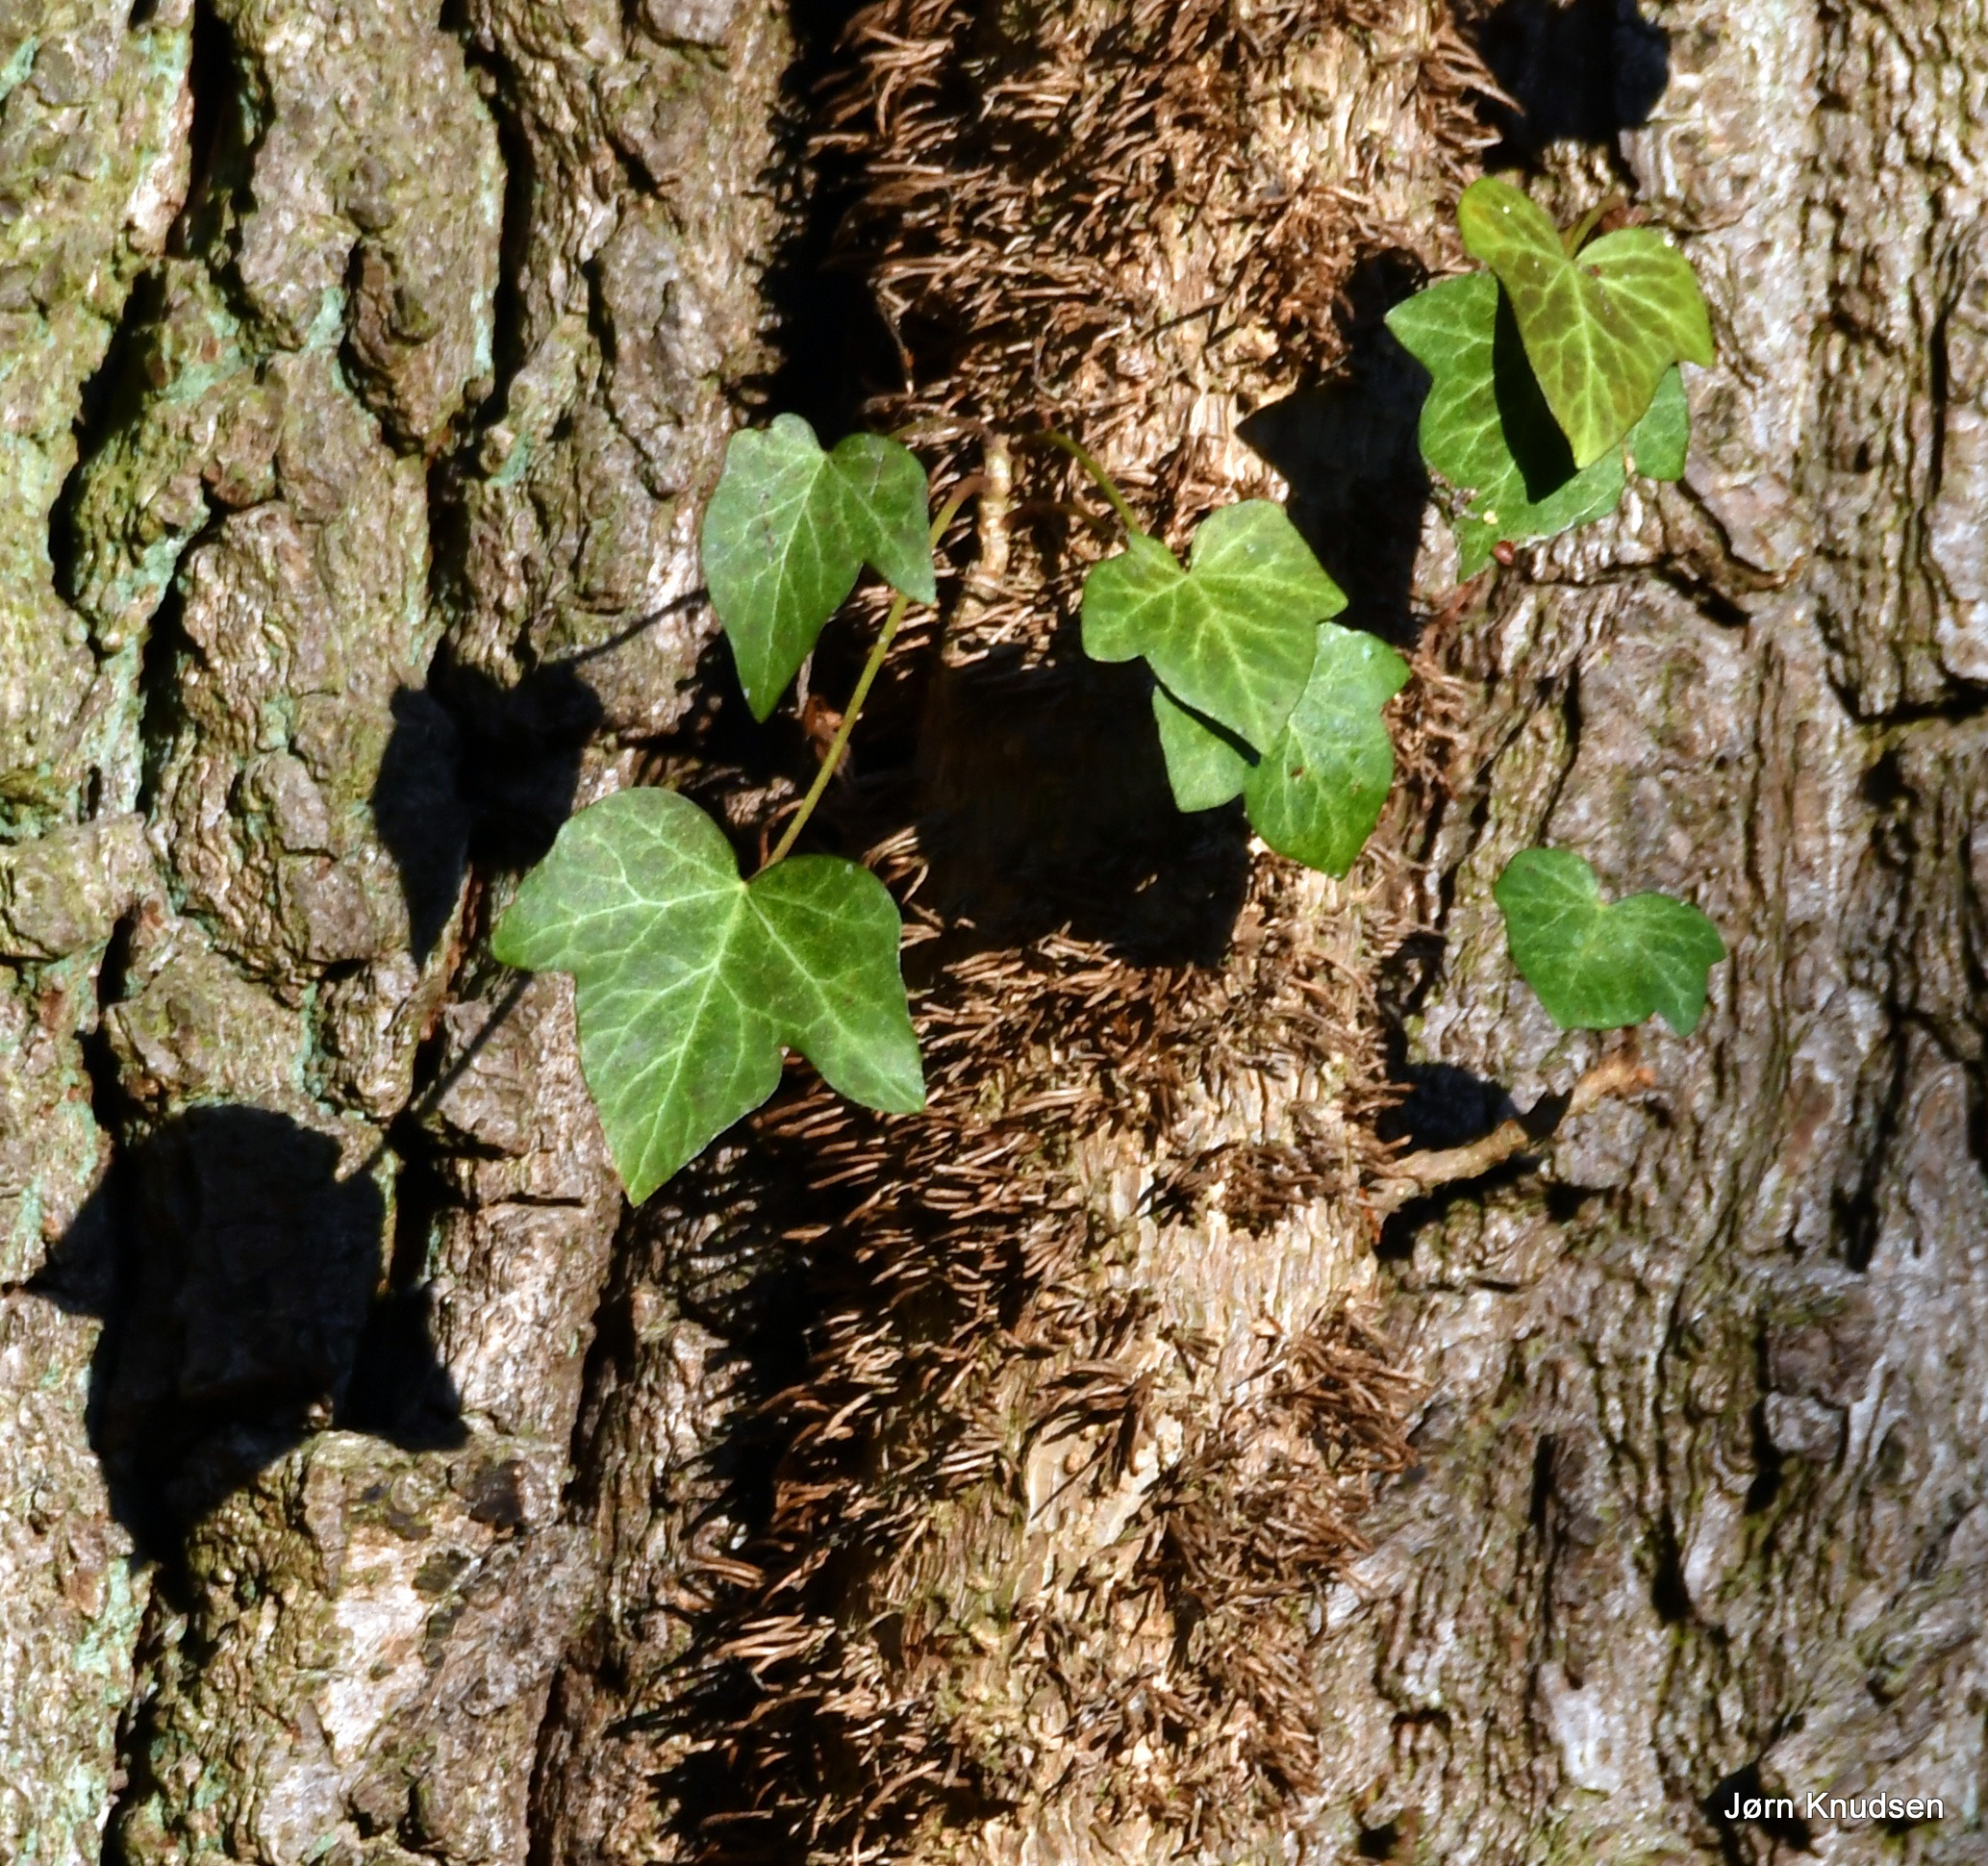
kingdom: Plantae
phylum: Tracheophyta
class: Magnoliopsida
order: Apiales
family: Araliaceae
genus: Hedera
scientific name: Hedera helix
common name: Vedbend
